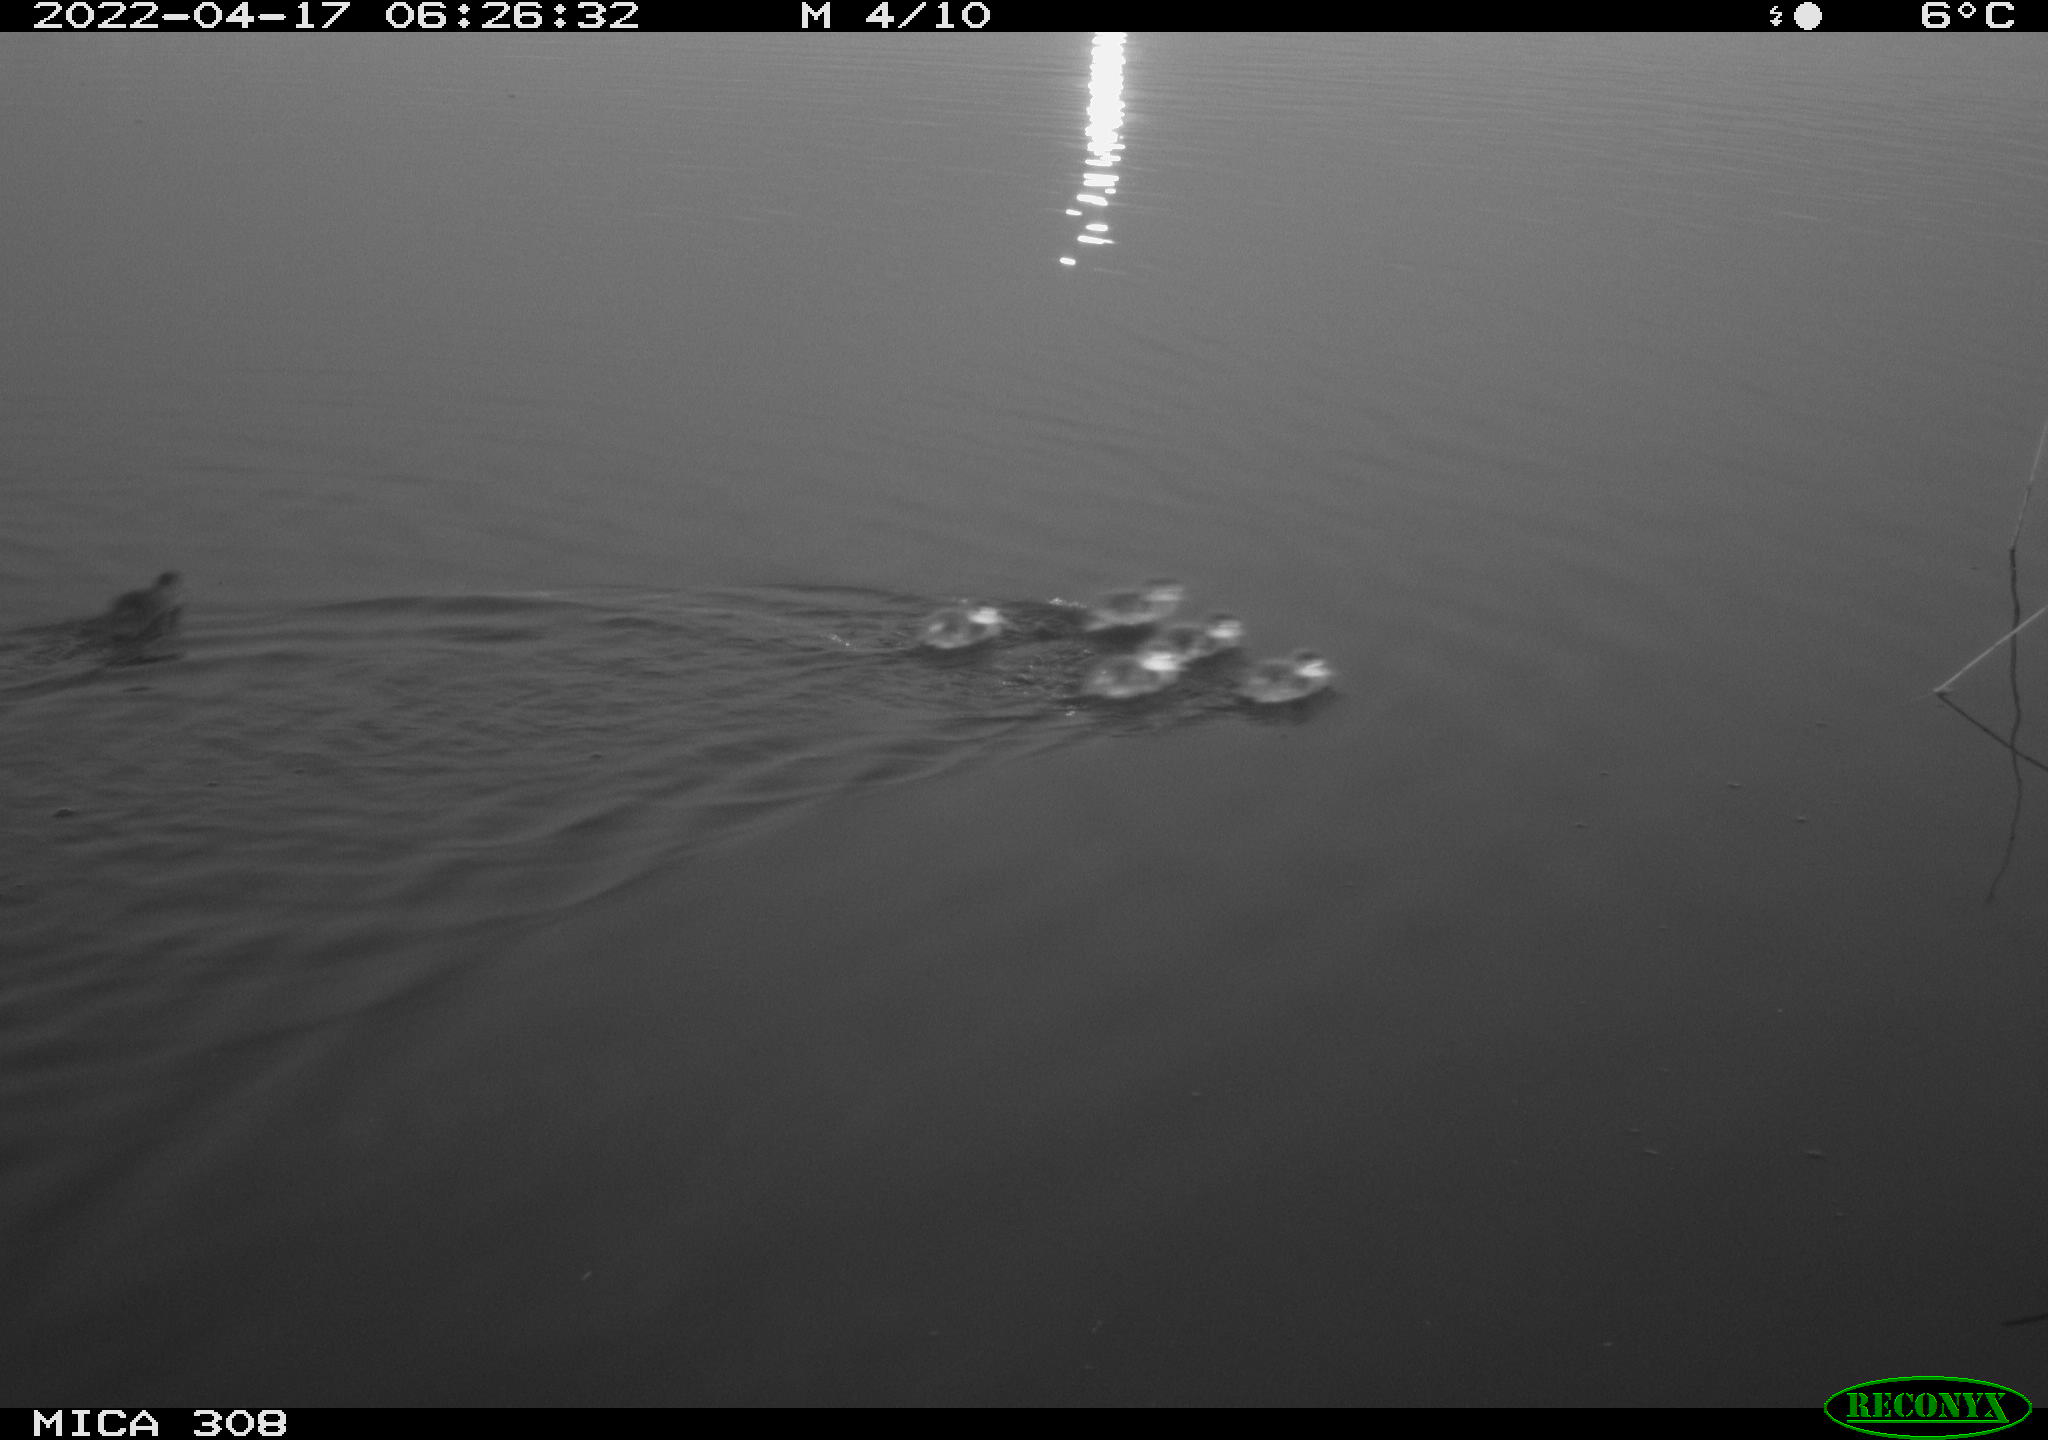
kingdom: Animalia
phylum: Chordata
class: Aves
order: Anseriformes
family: Anatidae
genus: Anas
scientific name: Anas platyrhynchos
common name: Mallard
